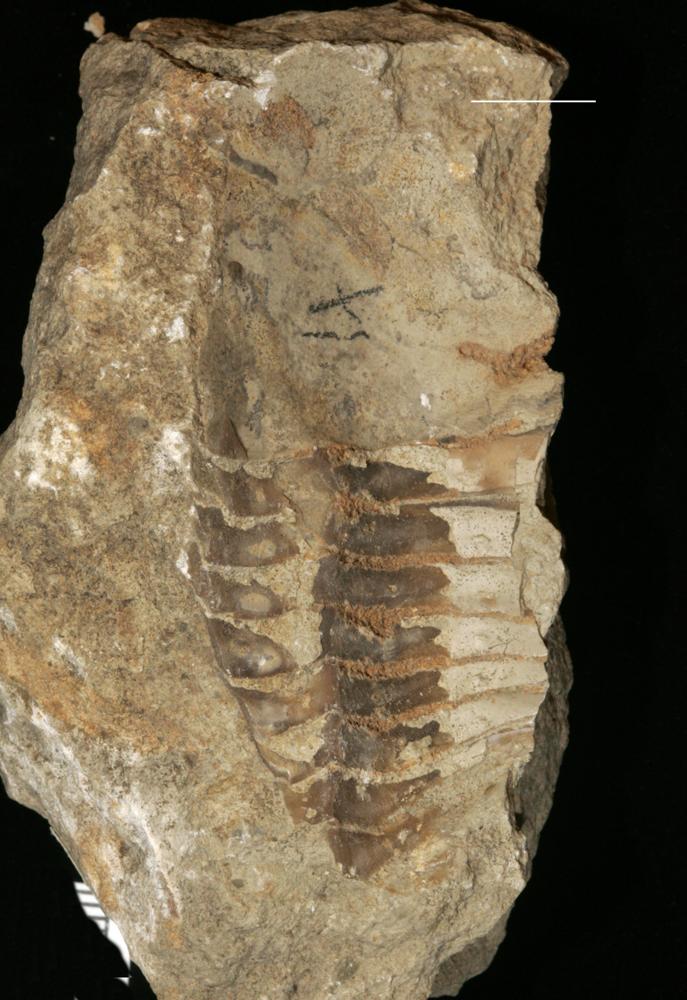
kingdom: Animalia
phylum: Arthropoda
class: Trilobita
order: Asaphida
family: Asaphidae
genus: Asaphus
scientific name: Asaphus
